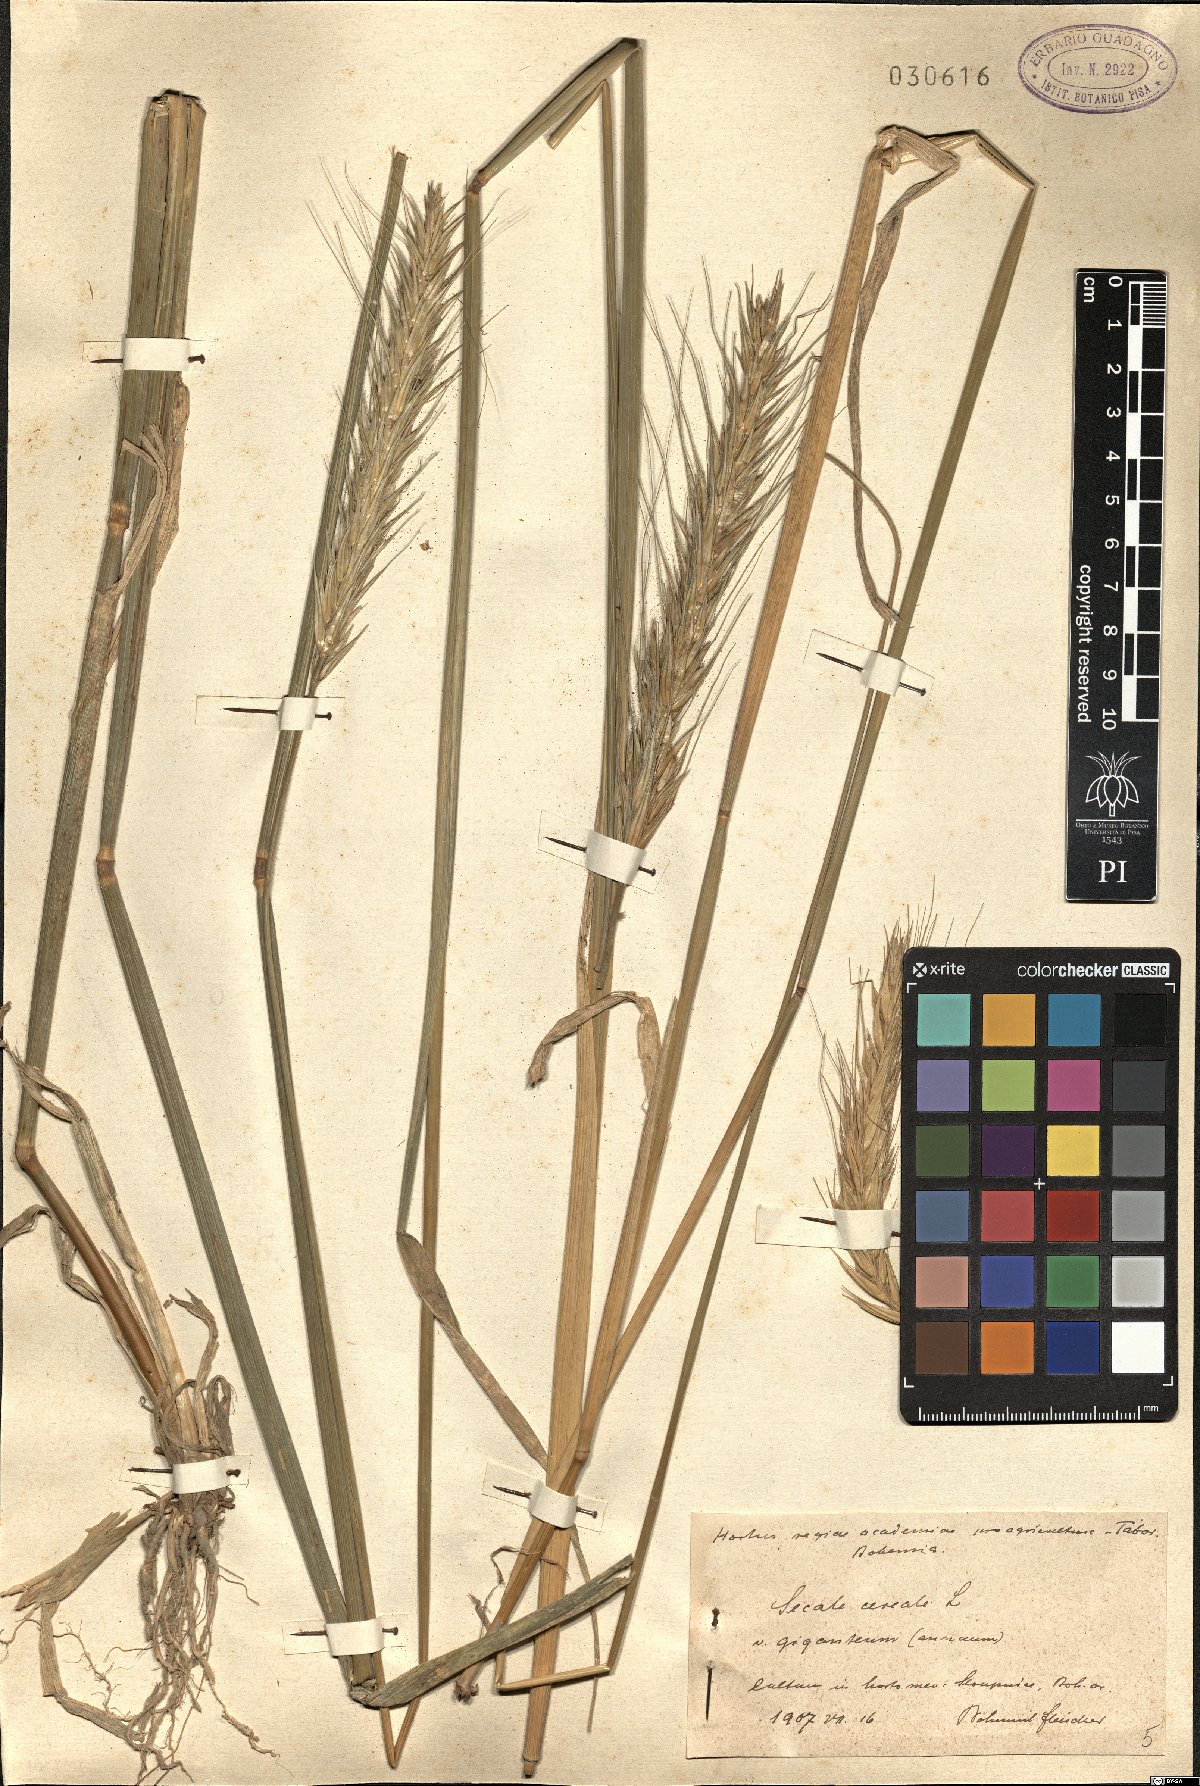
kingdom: Plantae
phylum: Tracheophyta
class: Liliopsida
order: Poales
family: Poaceae
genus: Secale
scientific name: Secale cereale
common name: Rye
